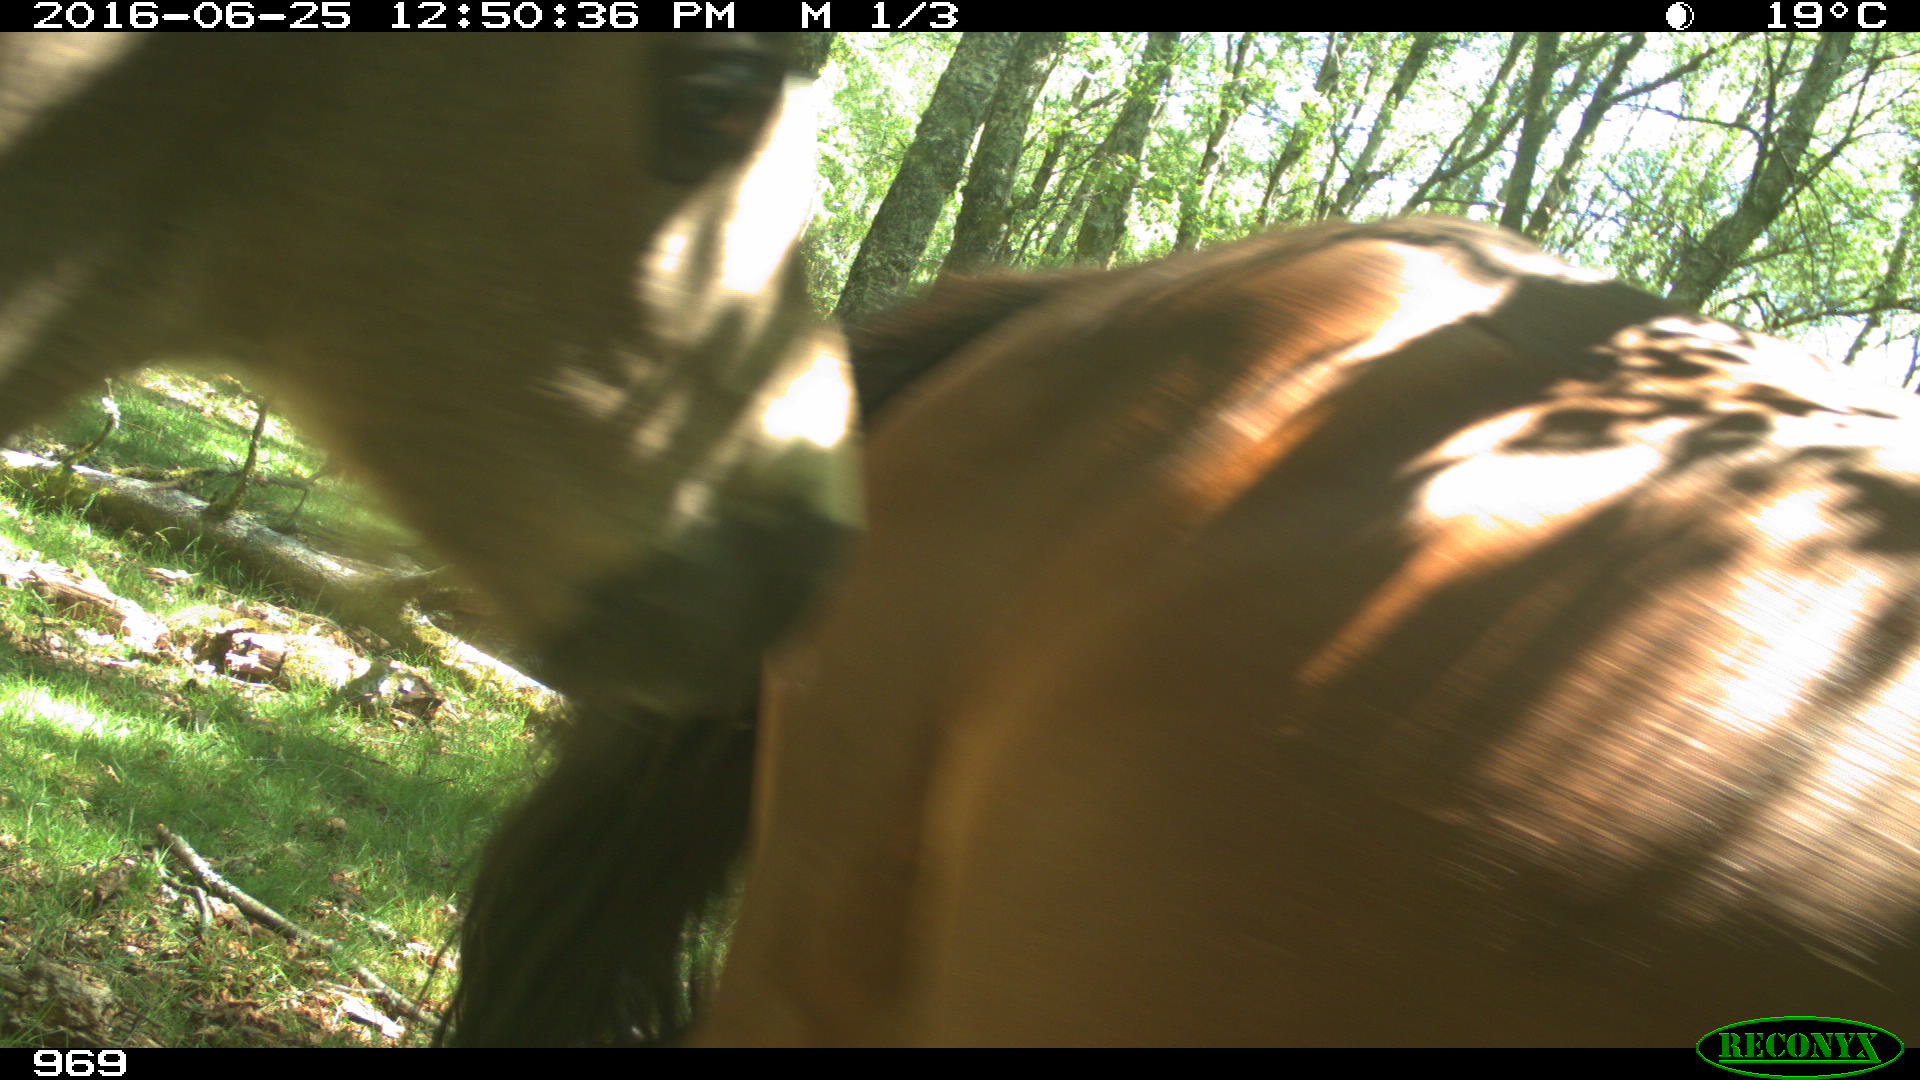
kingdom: Animalia
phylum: Chordata
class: Mammalia
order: Perissodactyla
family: Equidae
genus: Equus
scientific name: Equus caballus
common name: Horse
